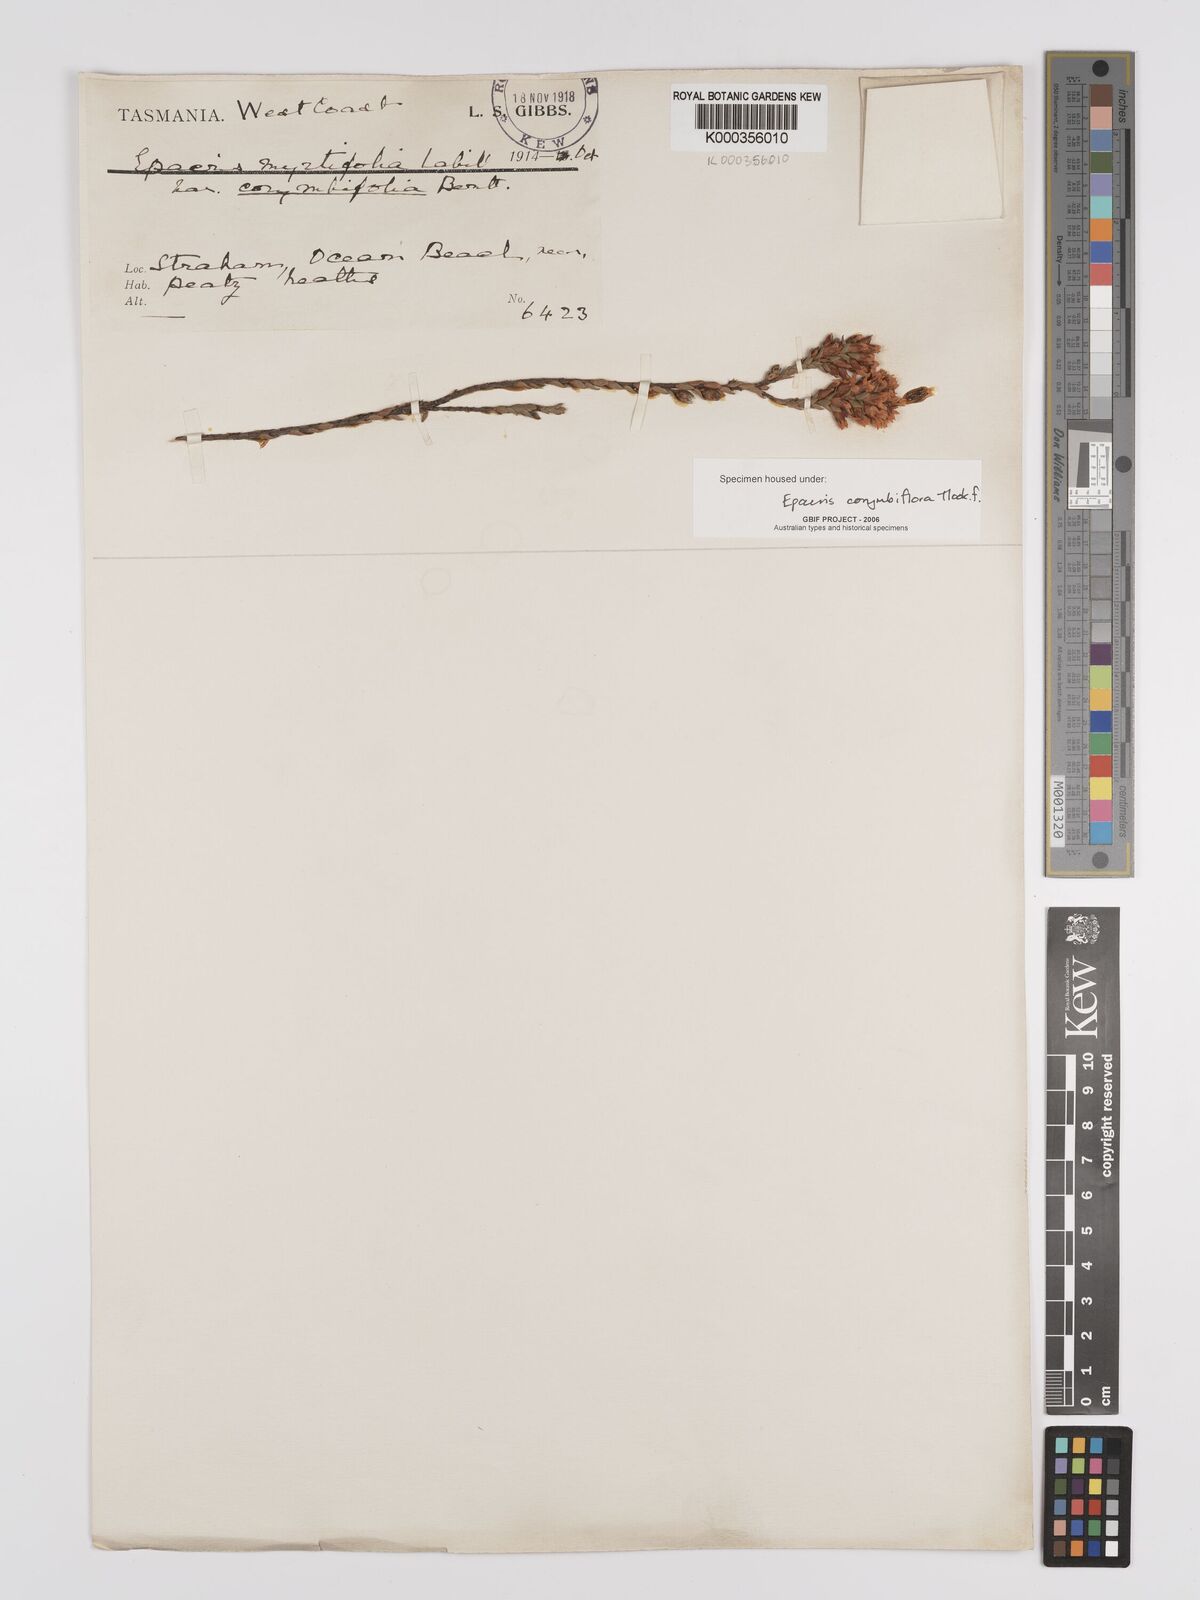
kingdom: Plantae
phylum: Tracheophyta
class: Magnoliopsida
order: Ericales
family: Ericaceae
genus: Epacris
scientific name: Epacris corymbiflora
